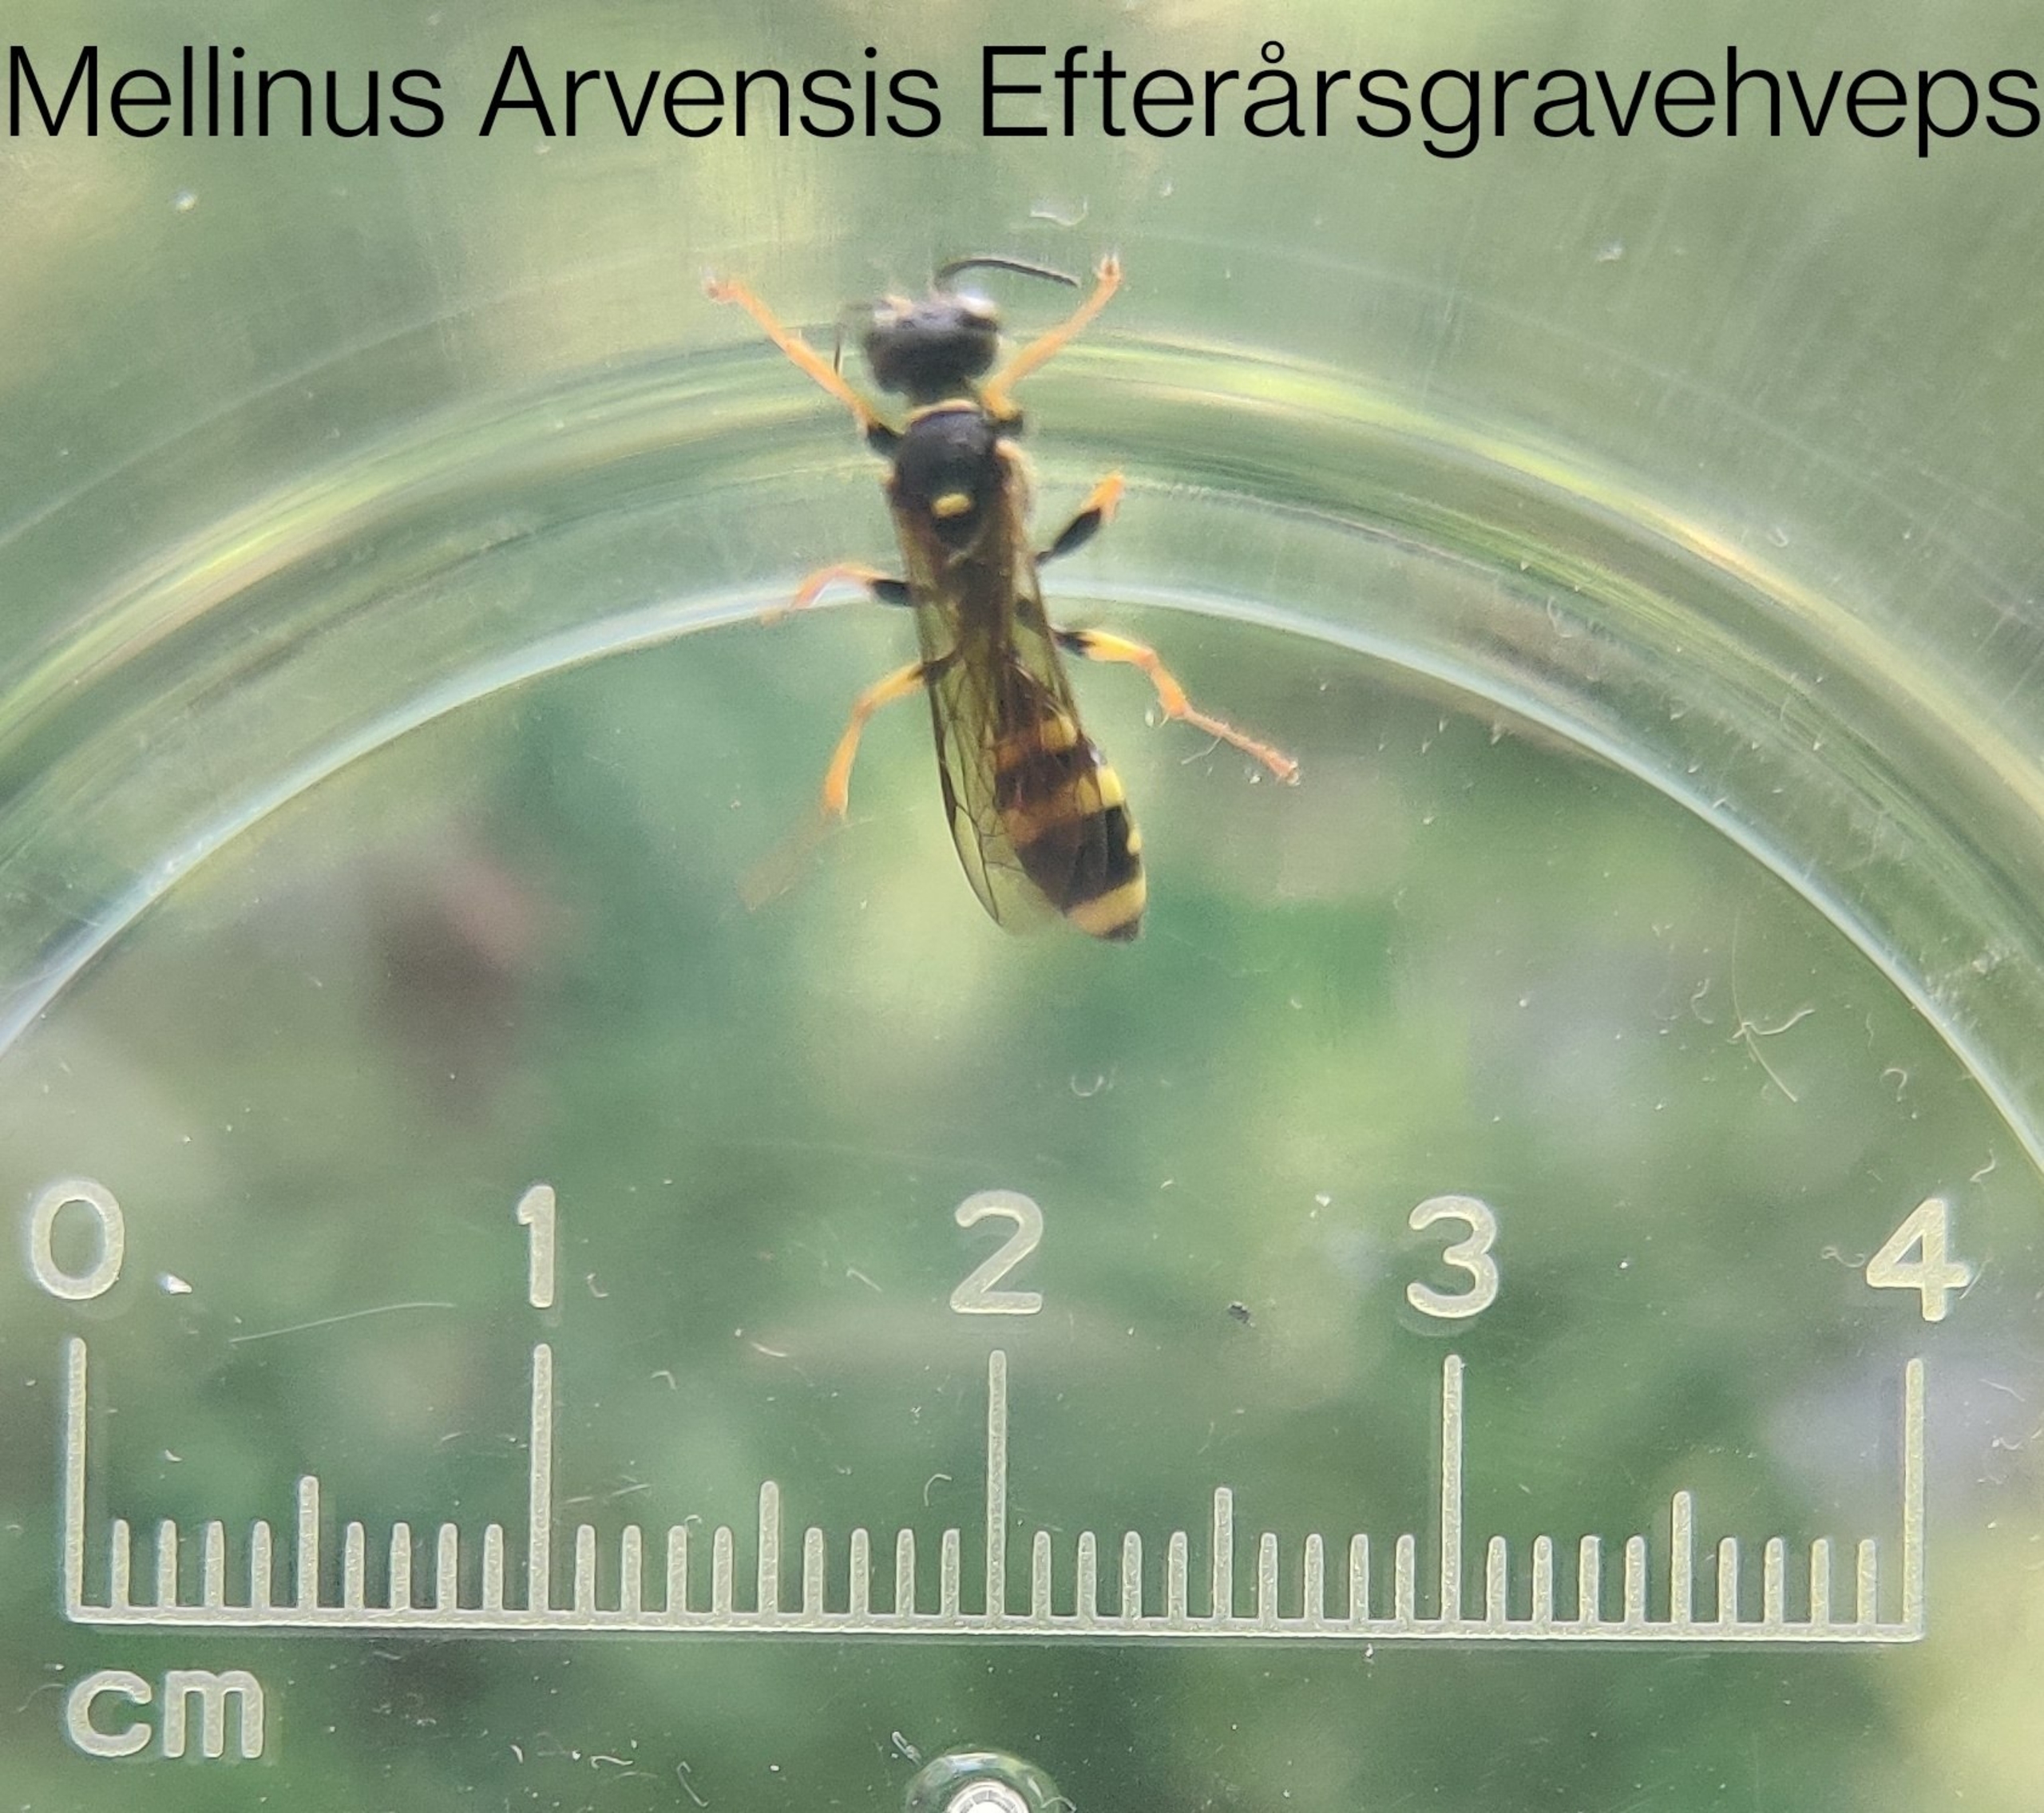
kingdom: Animalia
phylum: Arthropoda
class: Insecta
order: Hymenoptera
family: Crabronidae
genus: Mellinus
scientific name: Mellinus arvensis
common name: Efterårsgravehveps
